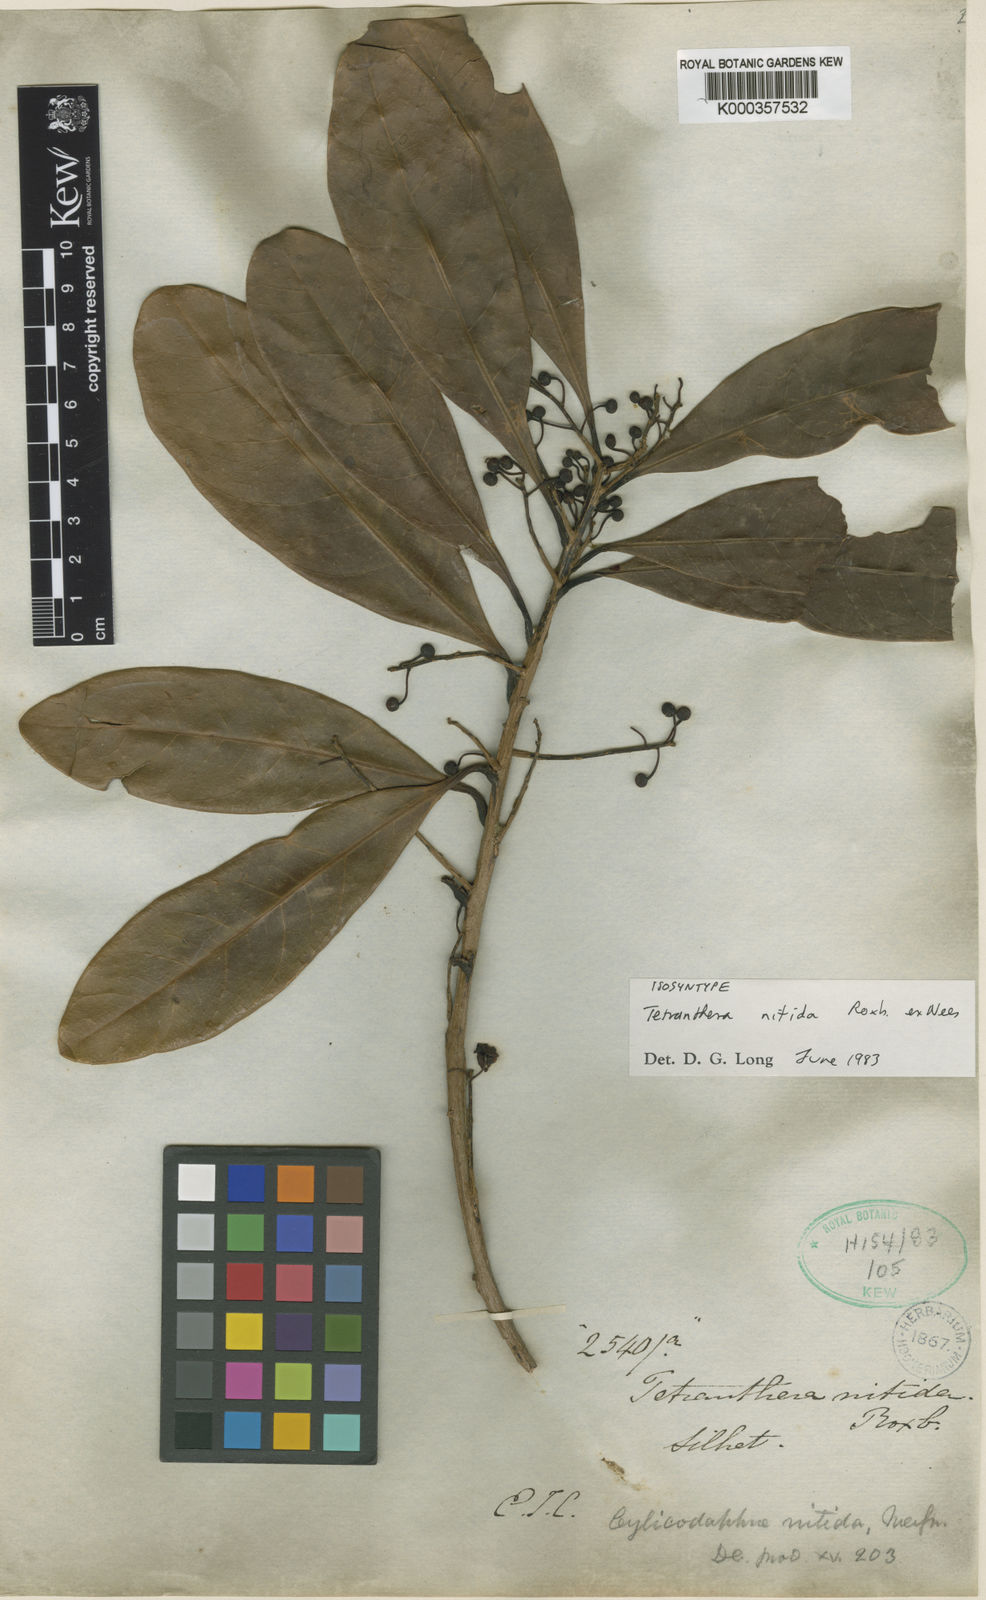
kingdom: Plantae
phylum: Tracheophyta
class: Magnoliopsida
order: Laurales
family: Lauraceae
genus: Litsea
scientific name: Litsea nitida
